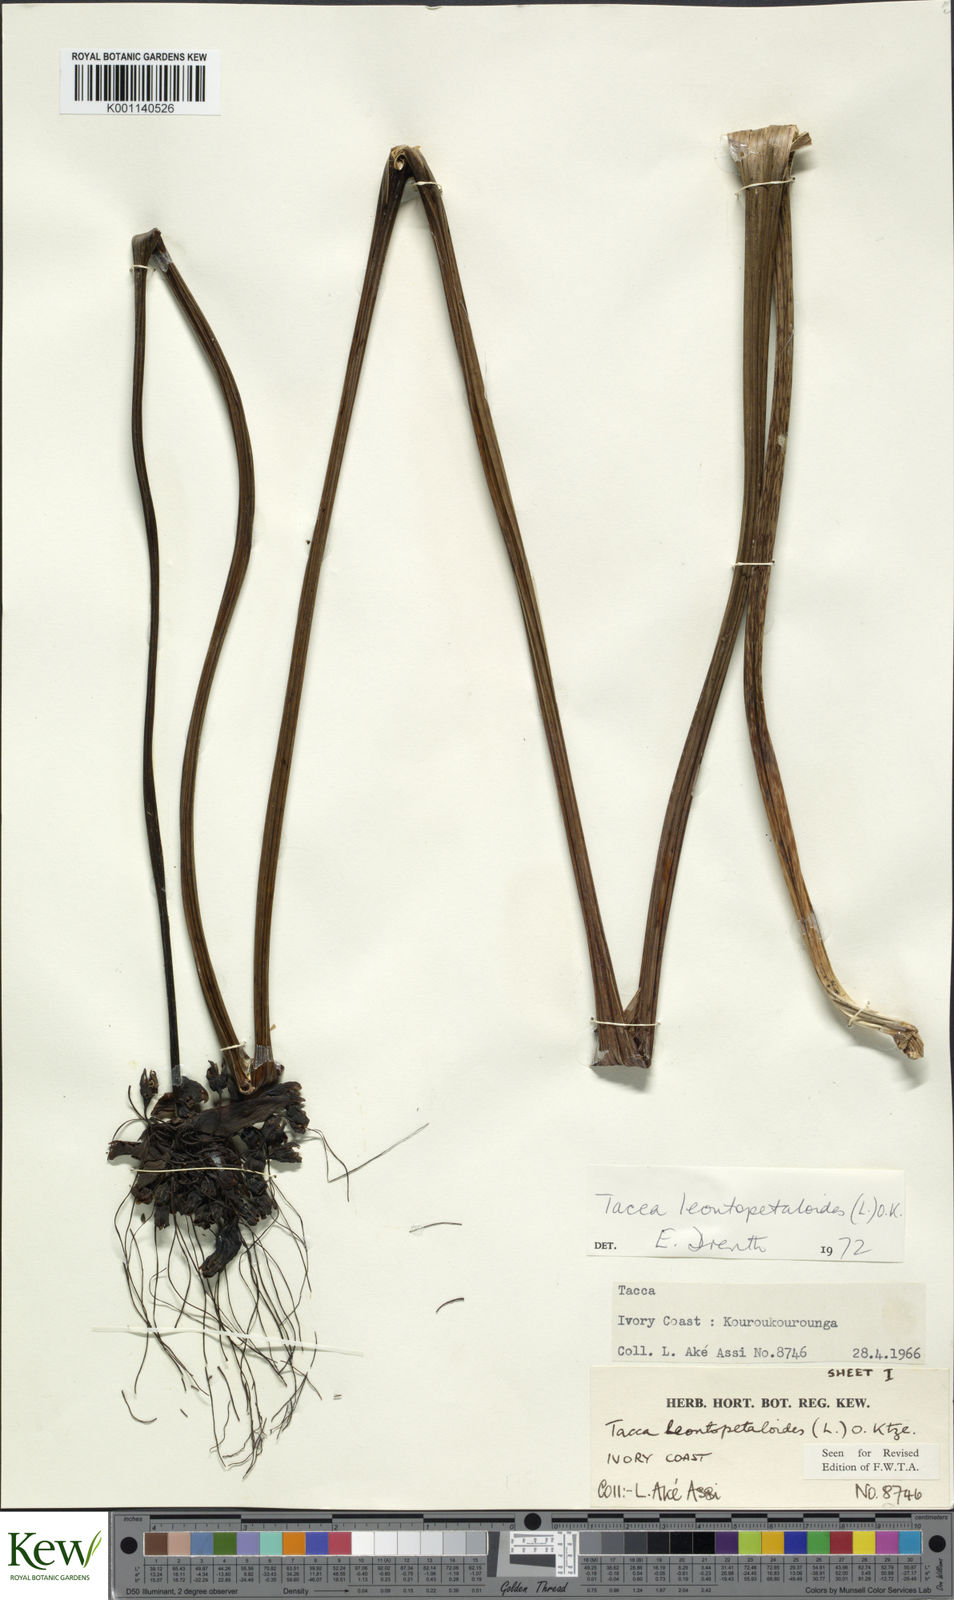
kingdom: Plantae
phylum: Tracheophyta
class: Liliopsida
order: Dioscoreales
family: Dioscoreaceae
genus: Tacca
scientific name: Tacca leontopetaloides
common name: Arrowroot
